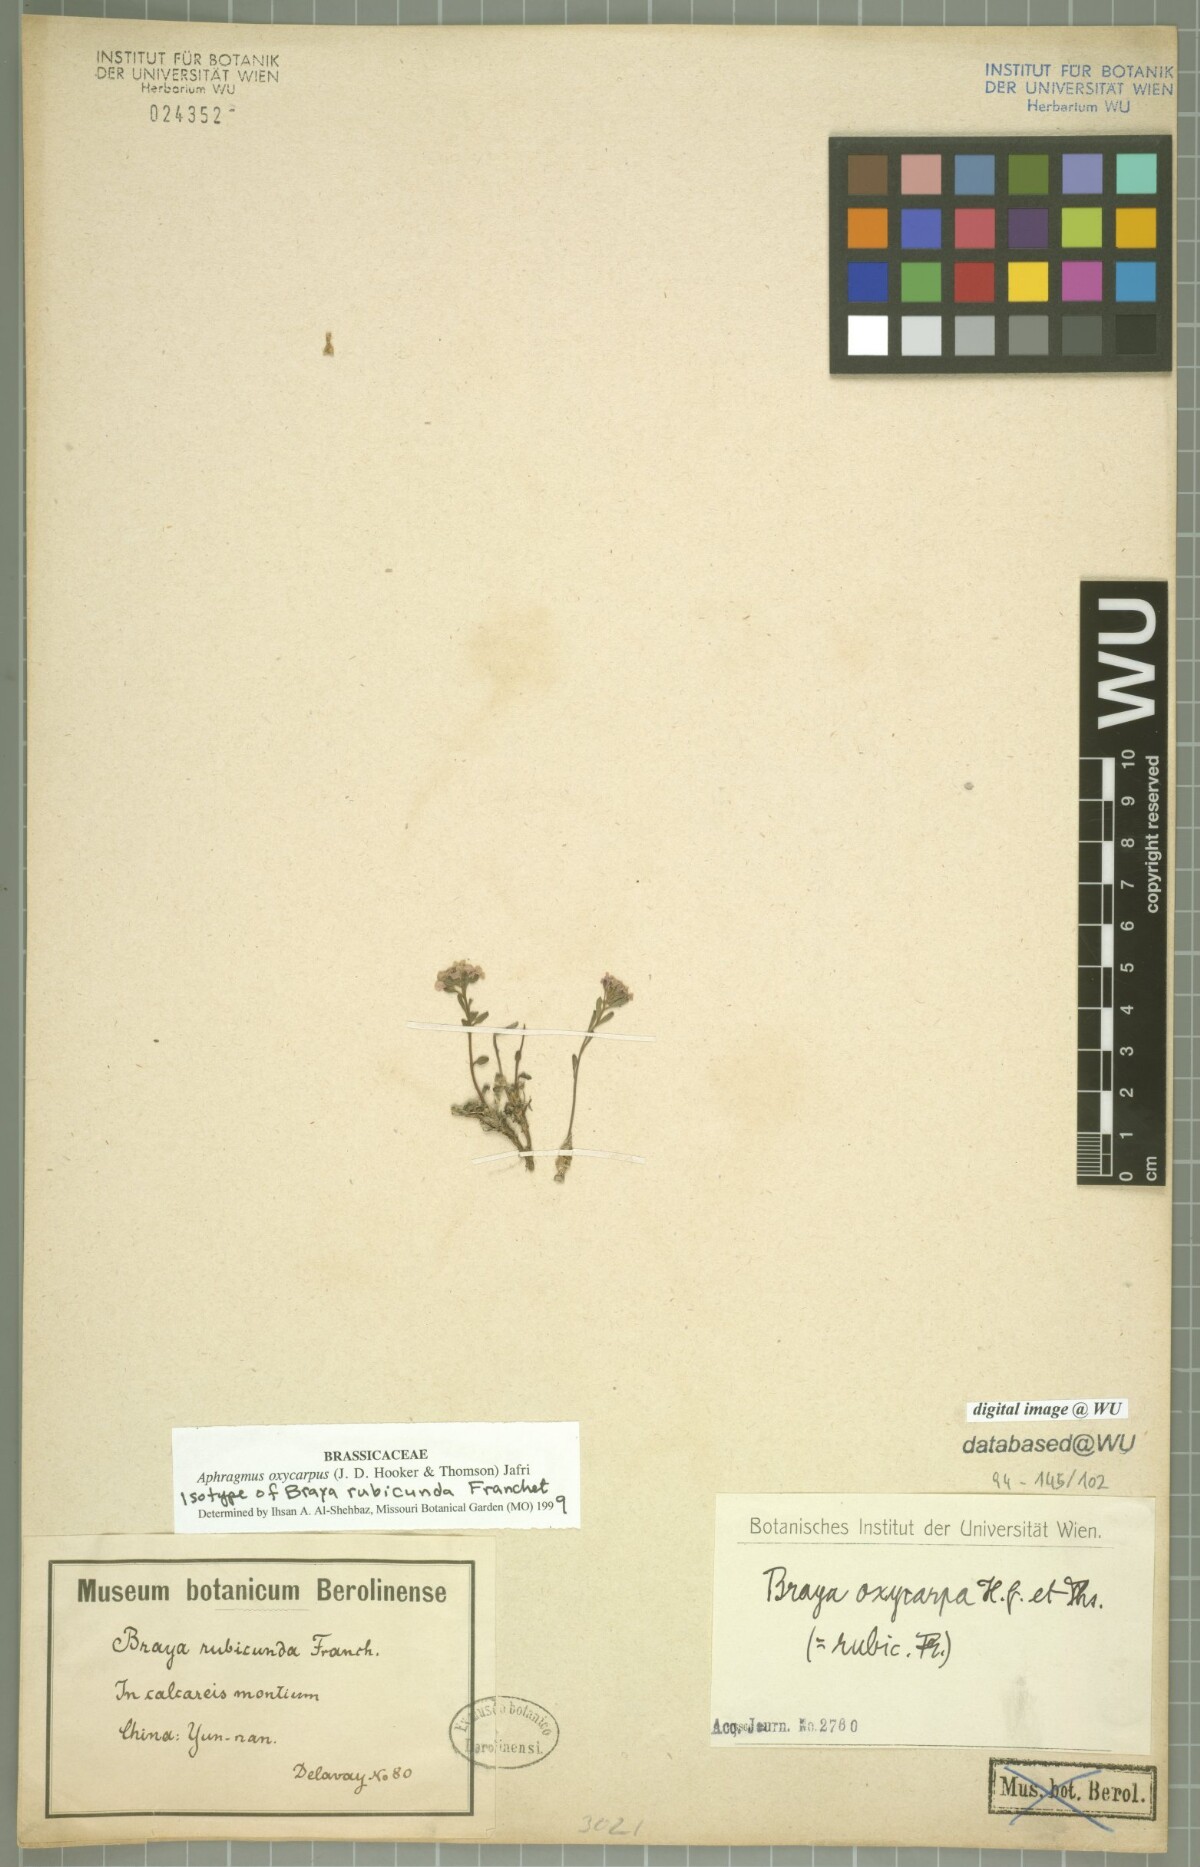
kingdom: Plantae
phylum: Tracheophyta
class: Magnoliopsida
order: Brassicales
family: Brassicaceae
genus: Aphragmus
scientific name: Aphragmus oxycarpus
